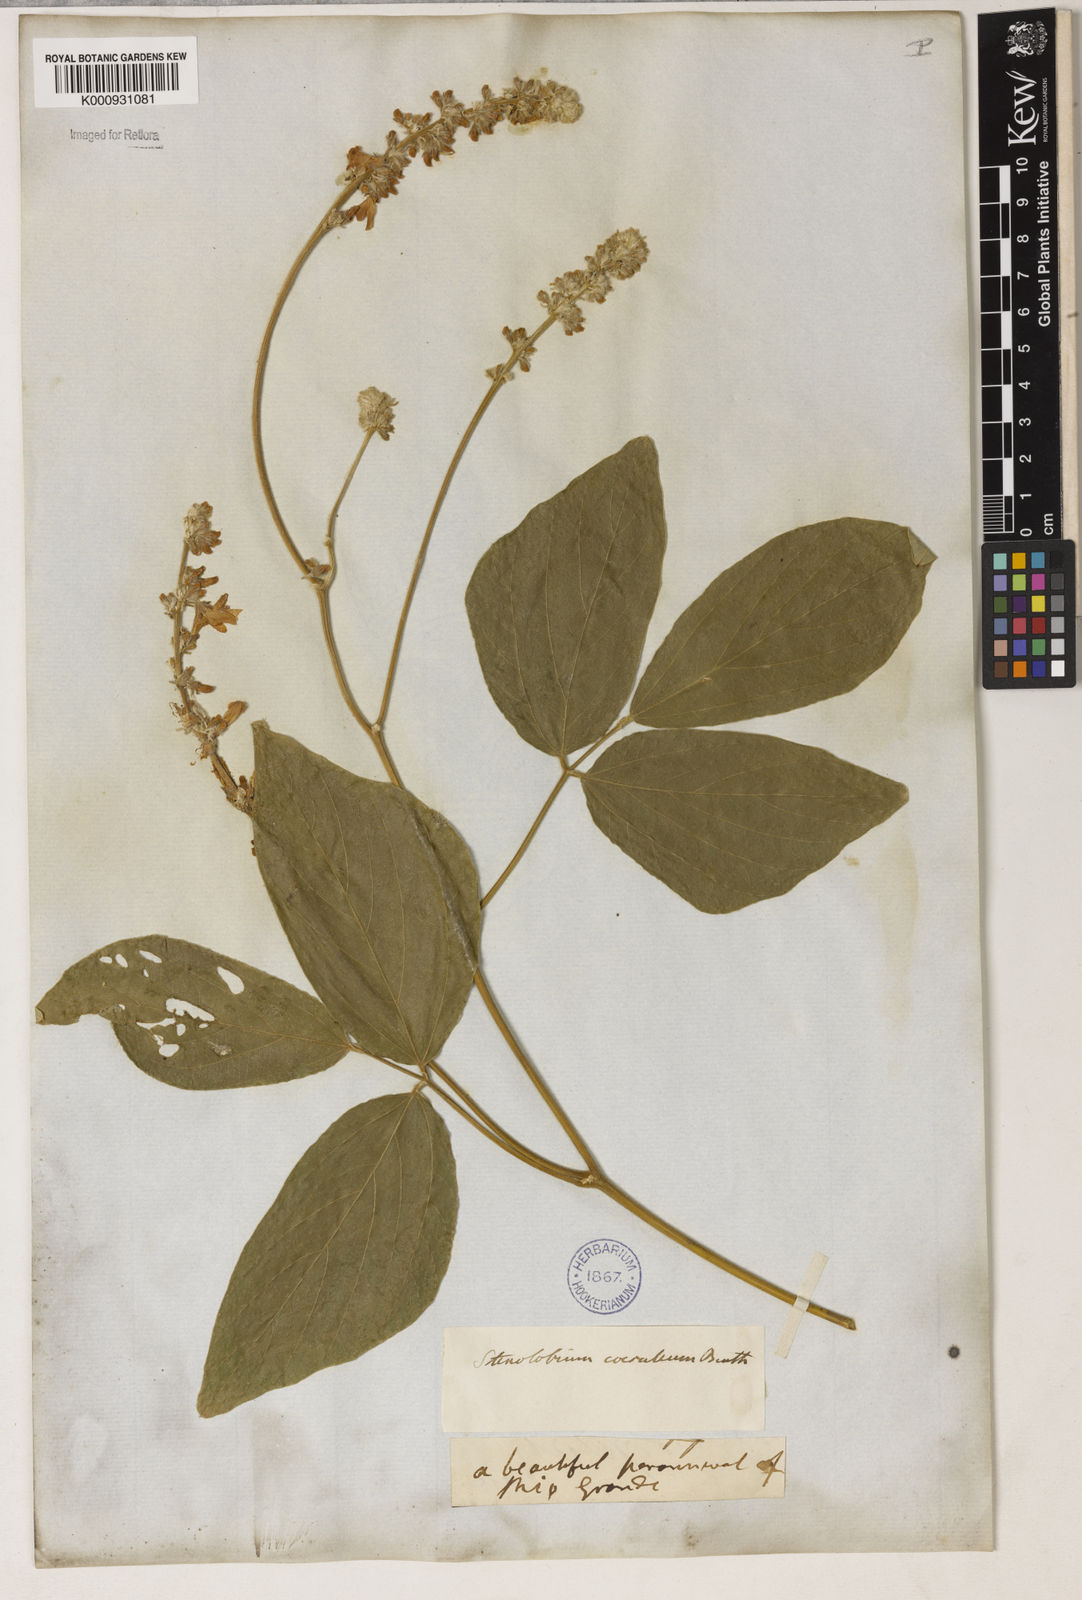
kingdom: Plantae
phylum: Tracheophyta
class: Magnoliopsida
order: Fabales
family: Fabaceae
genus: Calopogonium
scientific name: Calopogonium caeruleum
